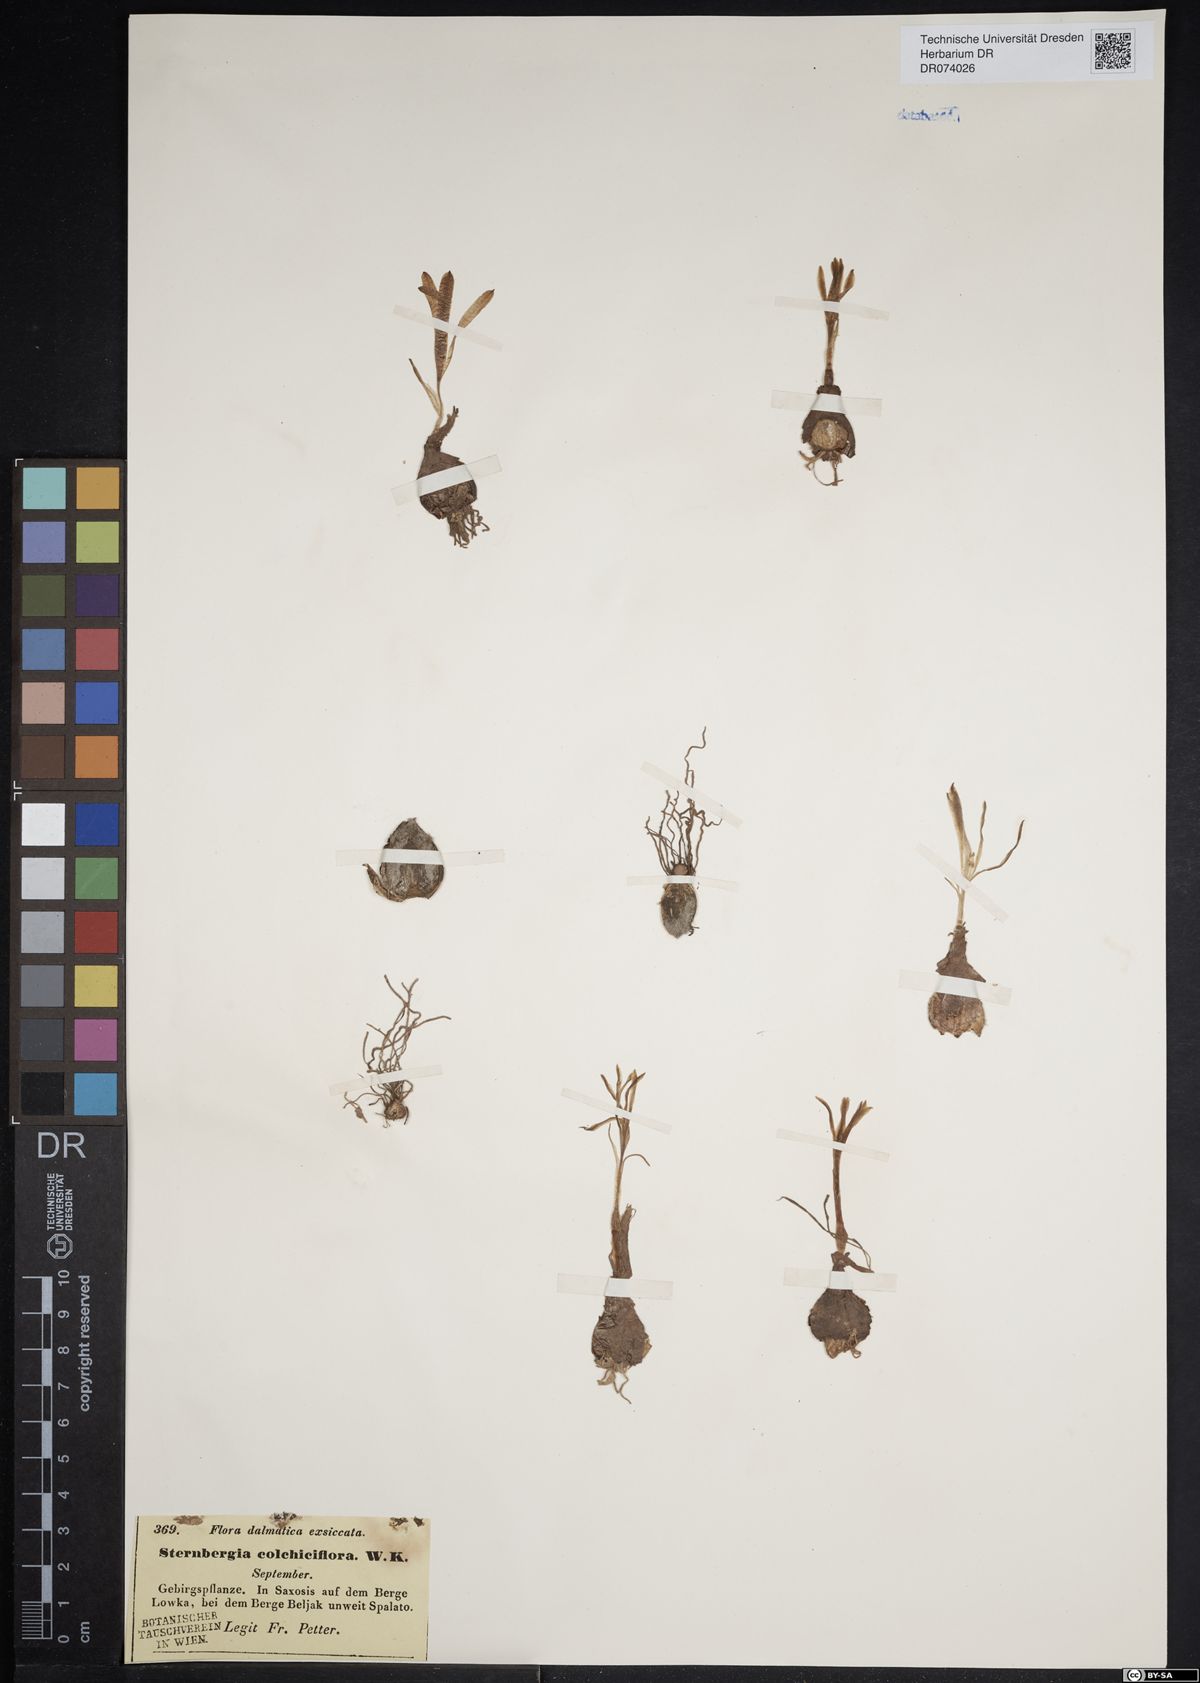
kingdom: Plantae
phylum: Tracheophyta
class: Liliopsida
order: Asparagales
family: Amaryllidaceae
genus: Sternbergia
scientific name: Sternbergia colchiciflora
